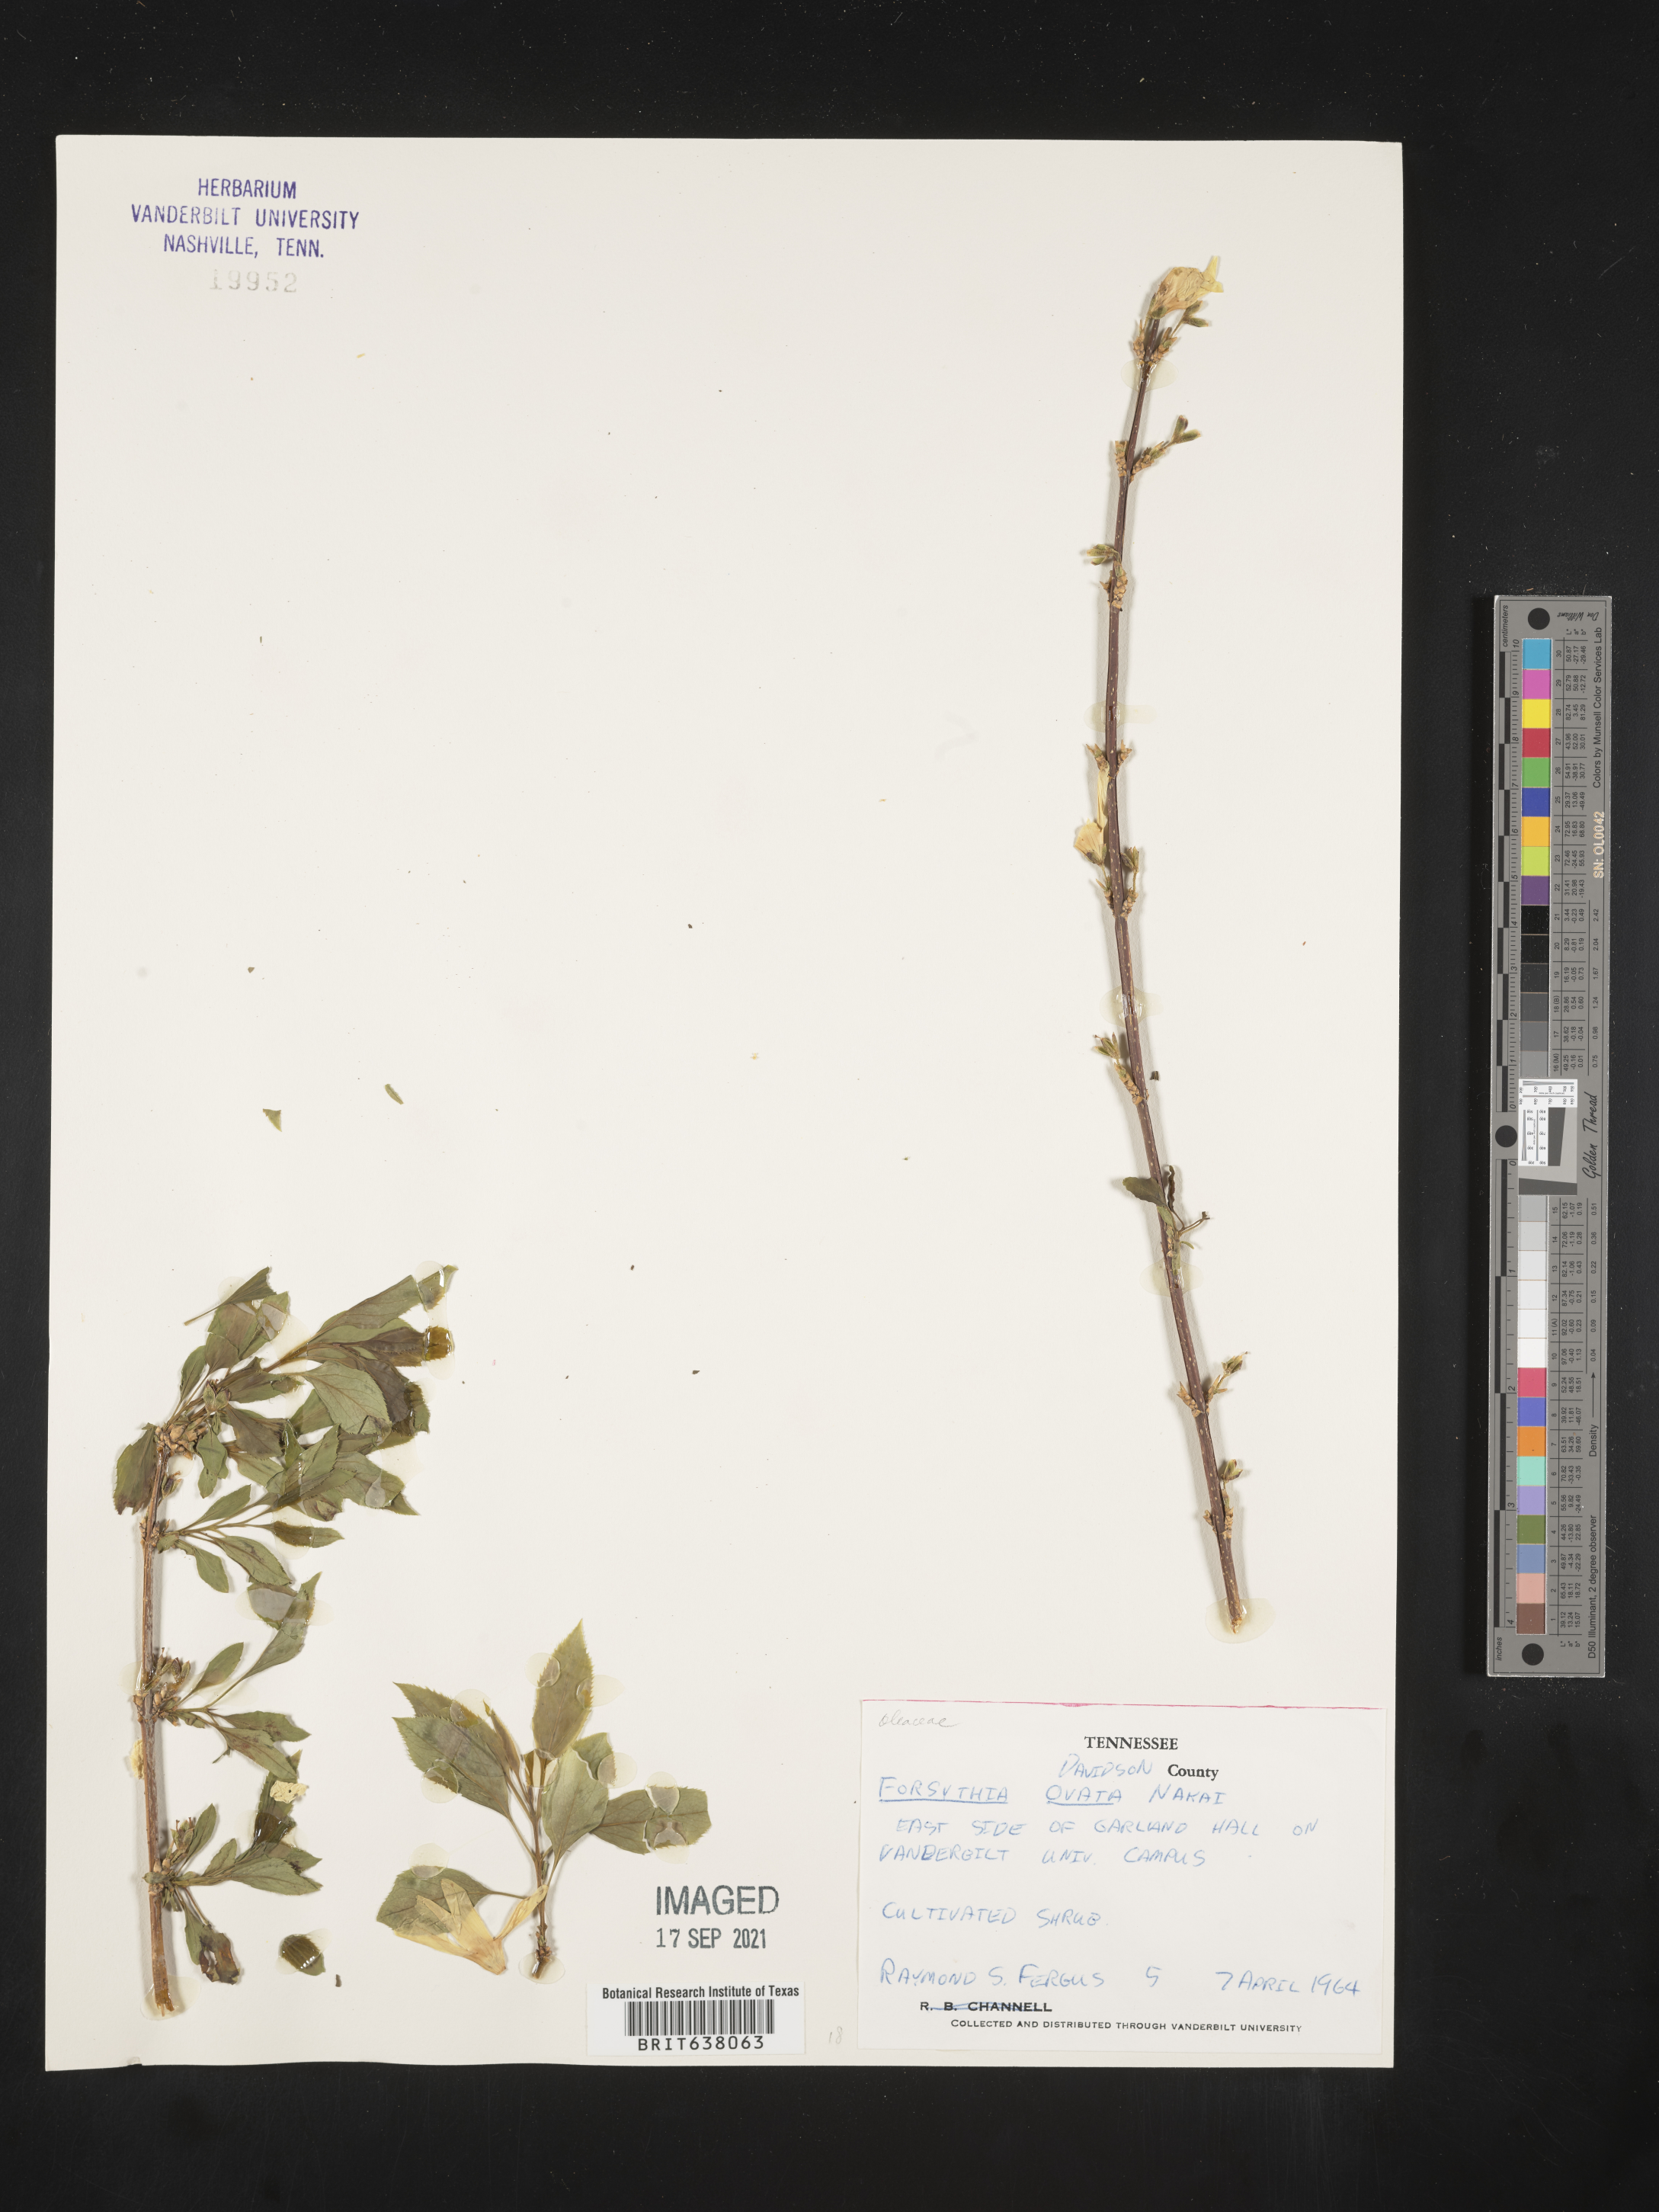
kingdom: Plantae
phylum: Tracheophyta
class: Magnoliopsida
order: Lamiales
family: Oleaceae
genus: Forsythia
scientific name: Forsythia
